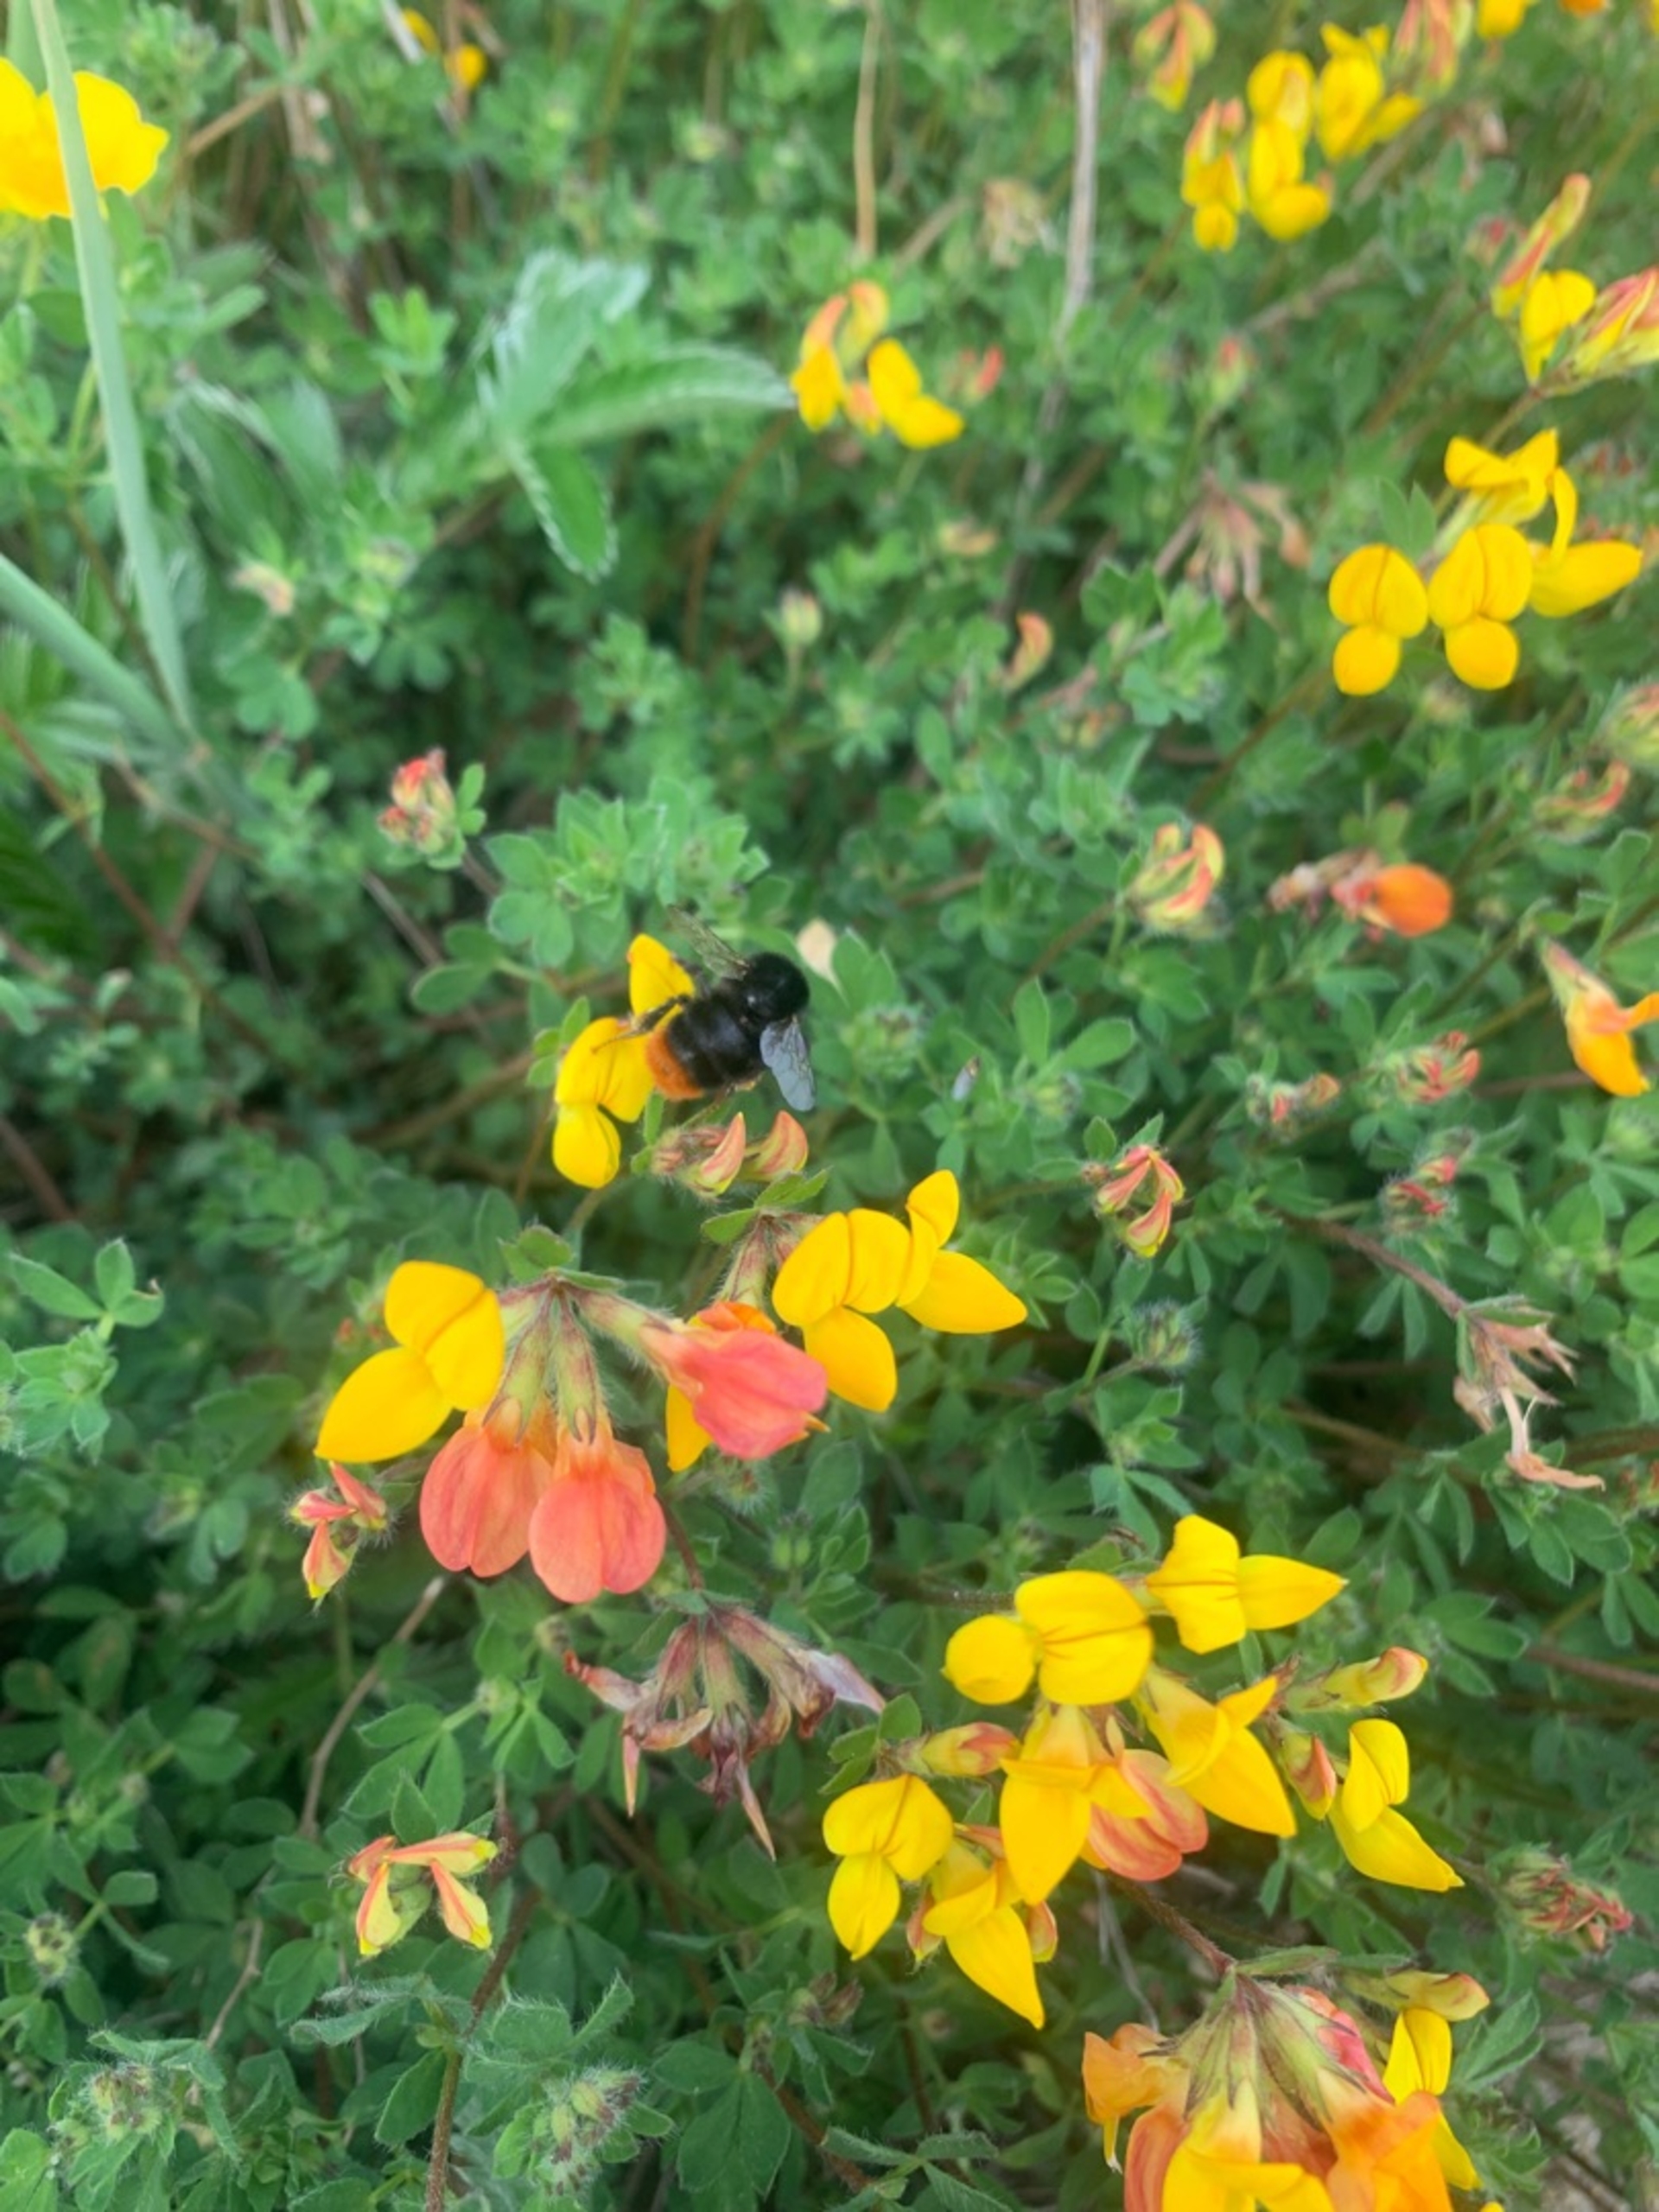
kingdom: Plantae
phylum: Tracheophyta
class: Magnoliopsida
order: Fabales
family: Fabaceae
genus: Lotus
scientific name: Lotus corniculatus
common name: Almindelig kællingetand
